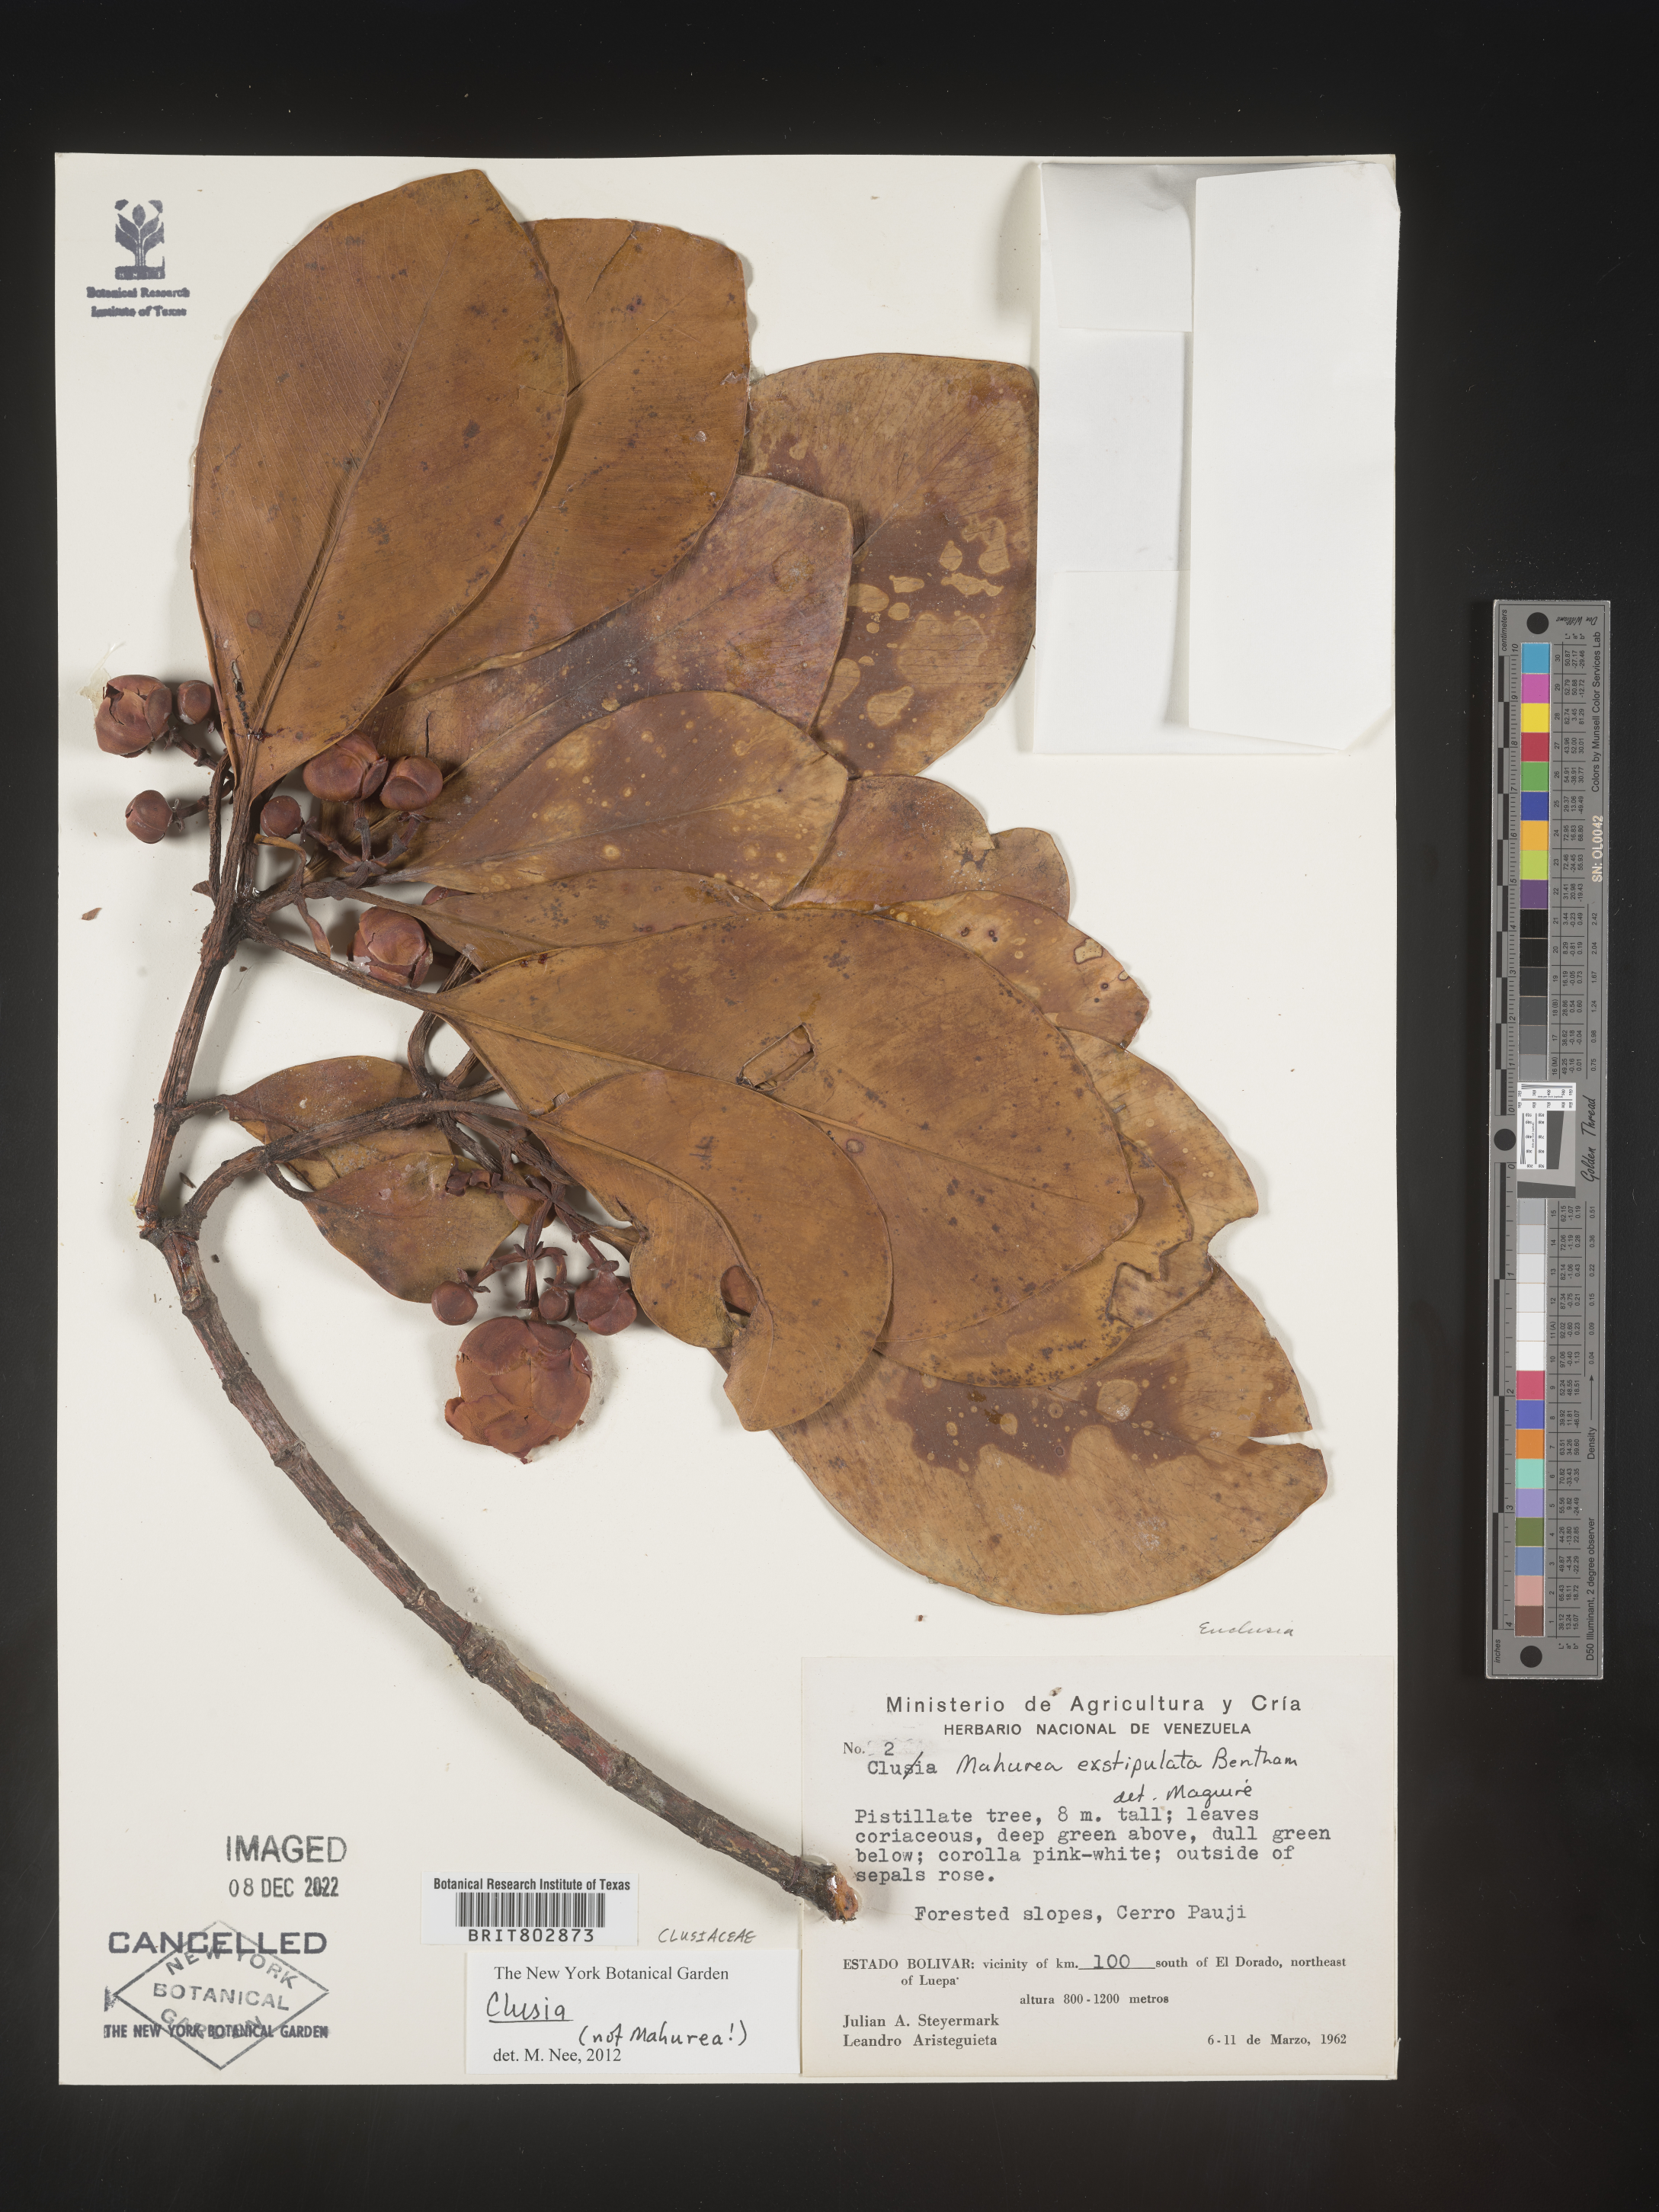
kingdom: Plantae
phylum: Tracheophyta
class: Magnoliopsida
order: Malpighiales
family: Clusiaceae
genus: Clusia
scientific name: Clusia
